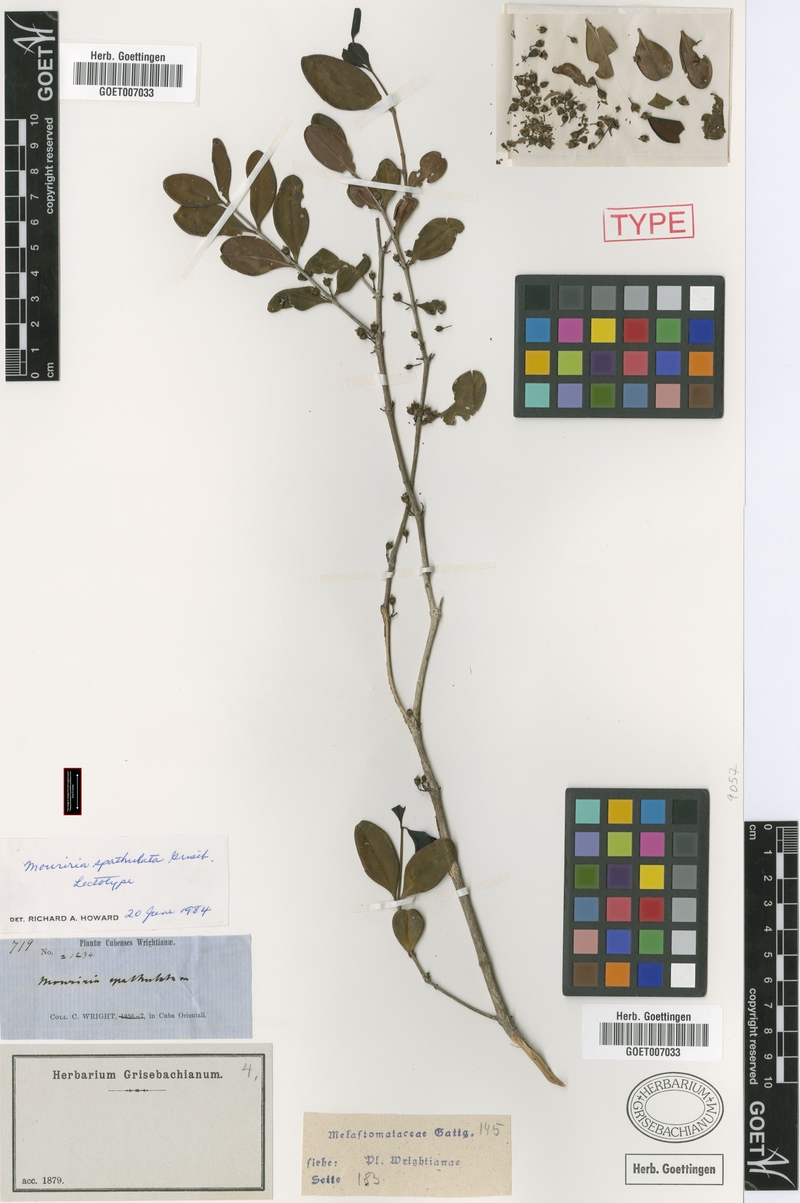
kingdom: Plantae
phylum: Tracheophyta
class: Magnoliopsida
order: Myrtales
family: Melastomataceae
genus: Mouriri
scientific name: Mouriri spathulata
